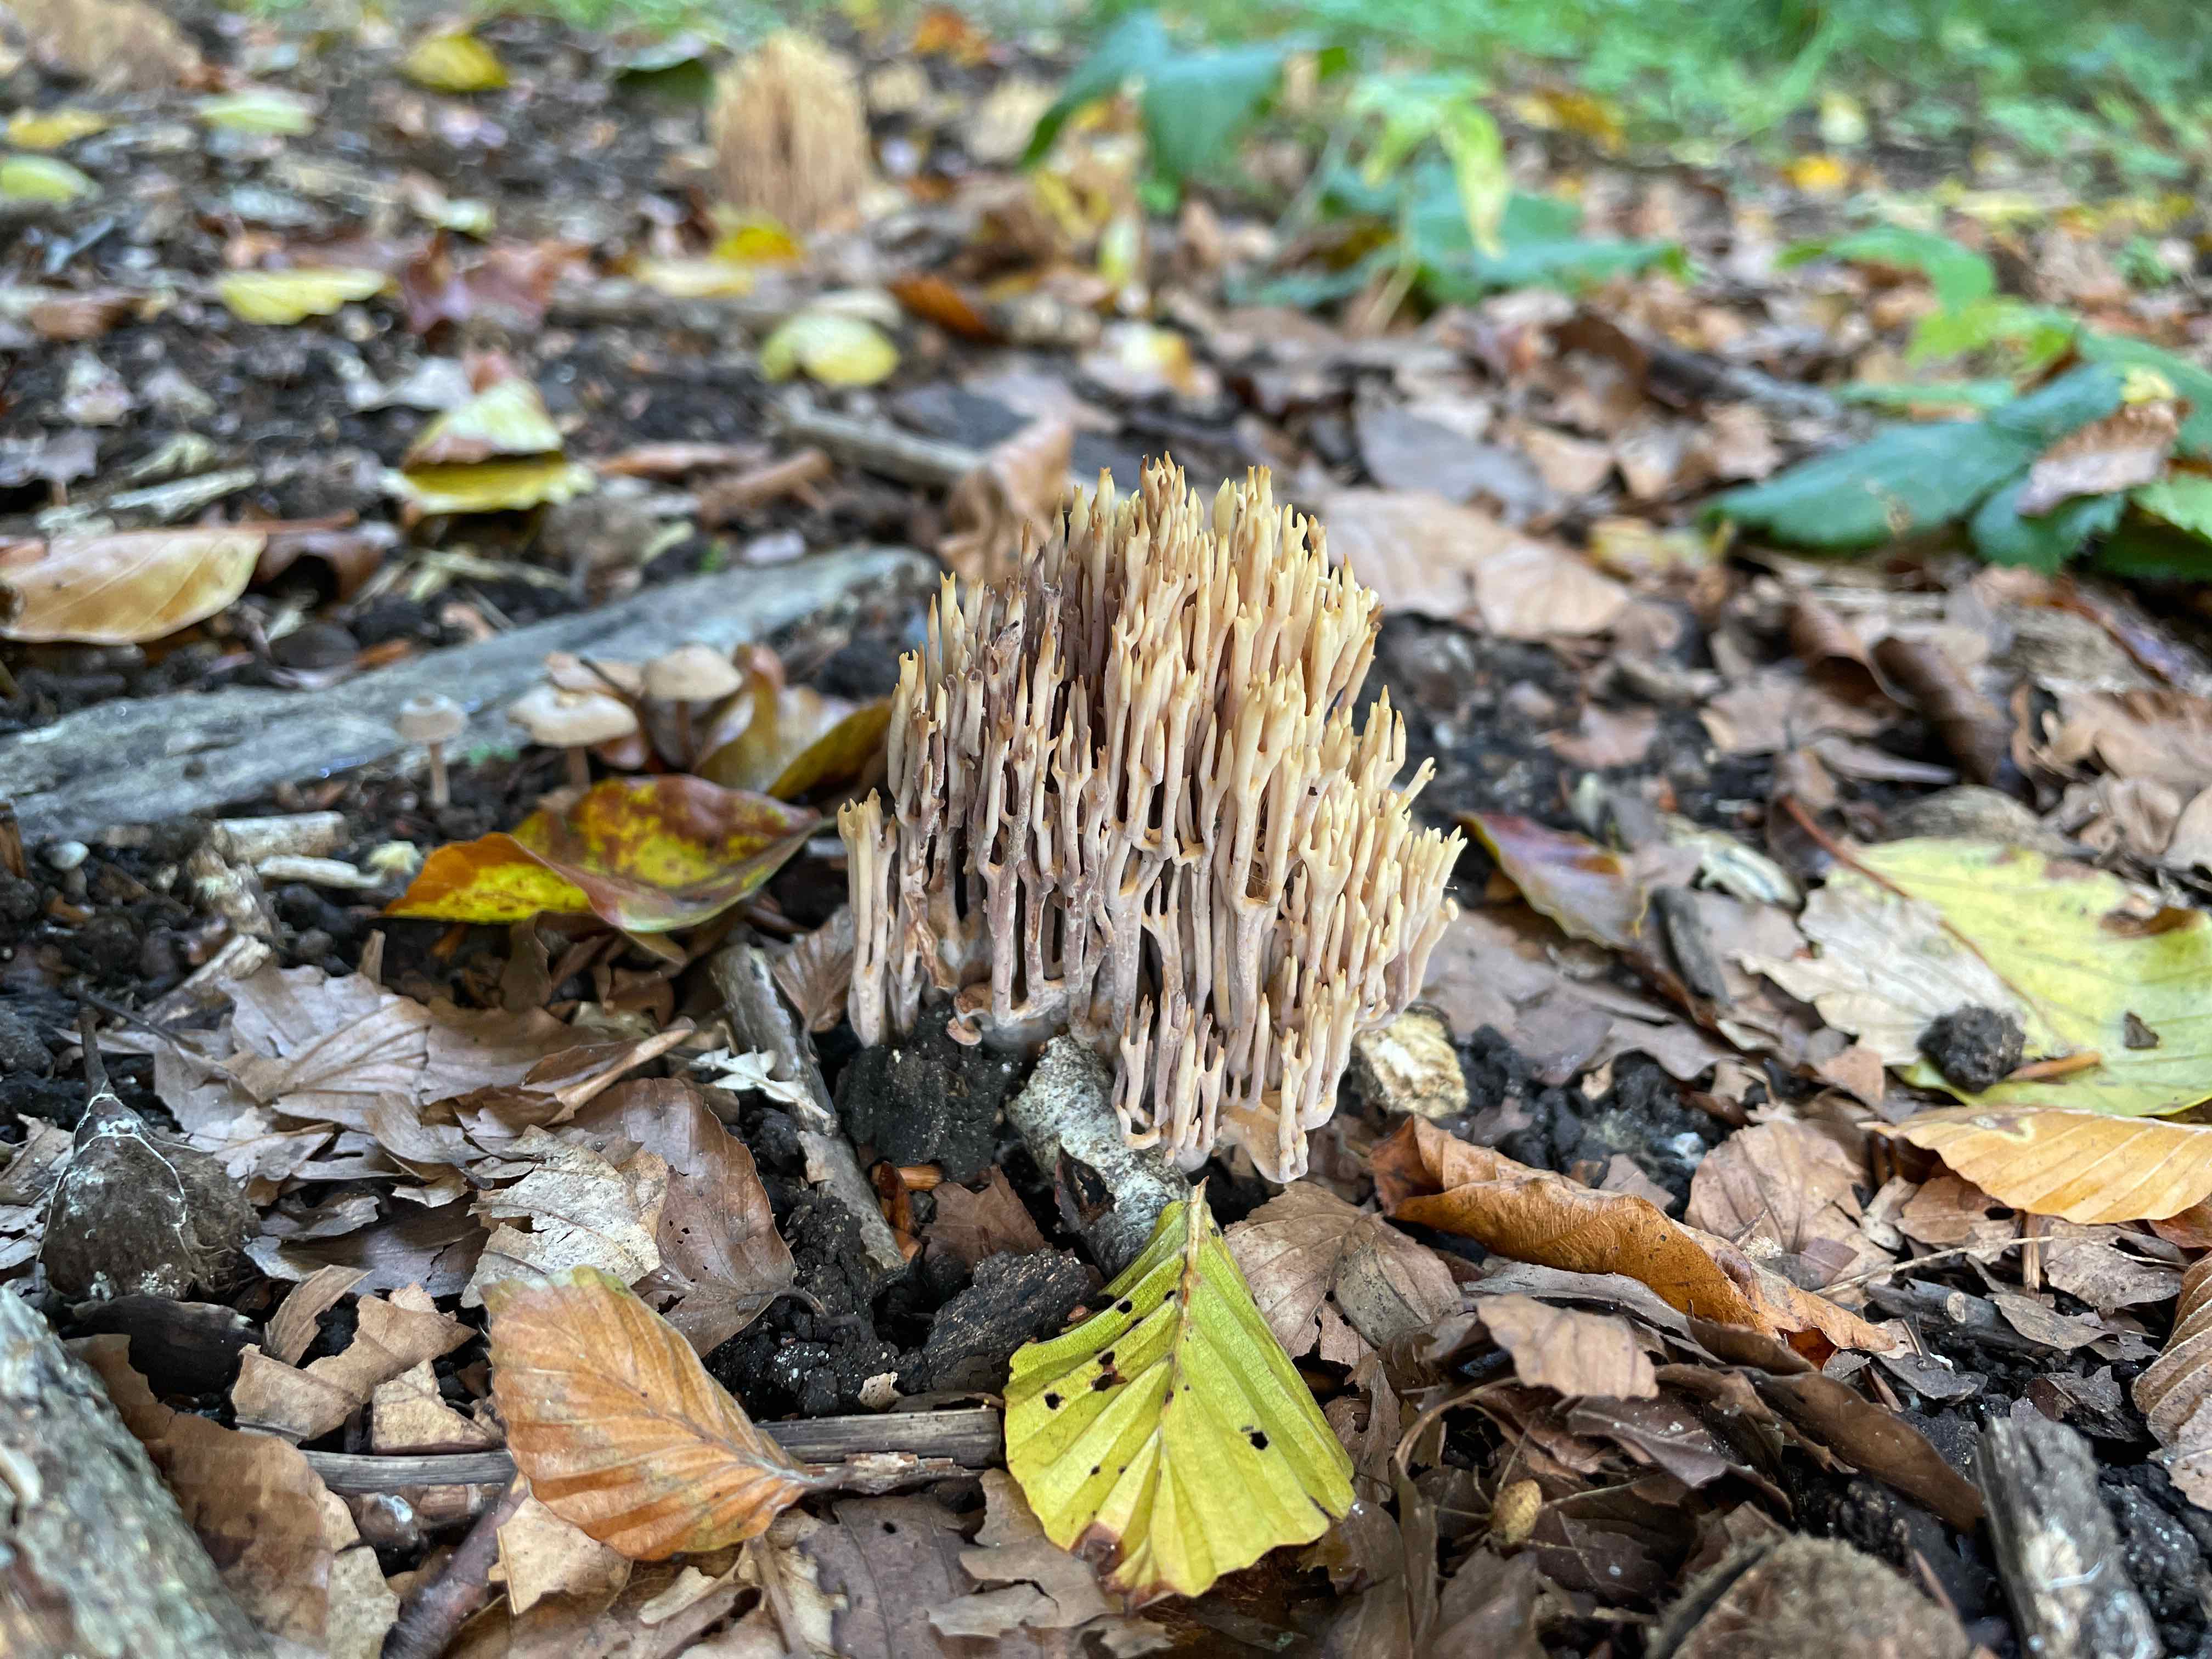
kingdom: Fungi
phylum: Basidiomycota
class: Agaricomycetes
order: Gomphales
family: Gomphaceae
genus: Ramaria
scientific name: Ramaria stricta
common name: rank koralsvamp
